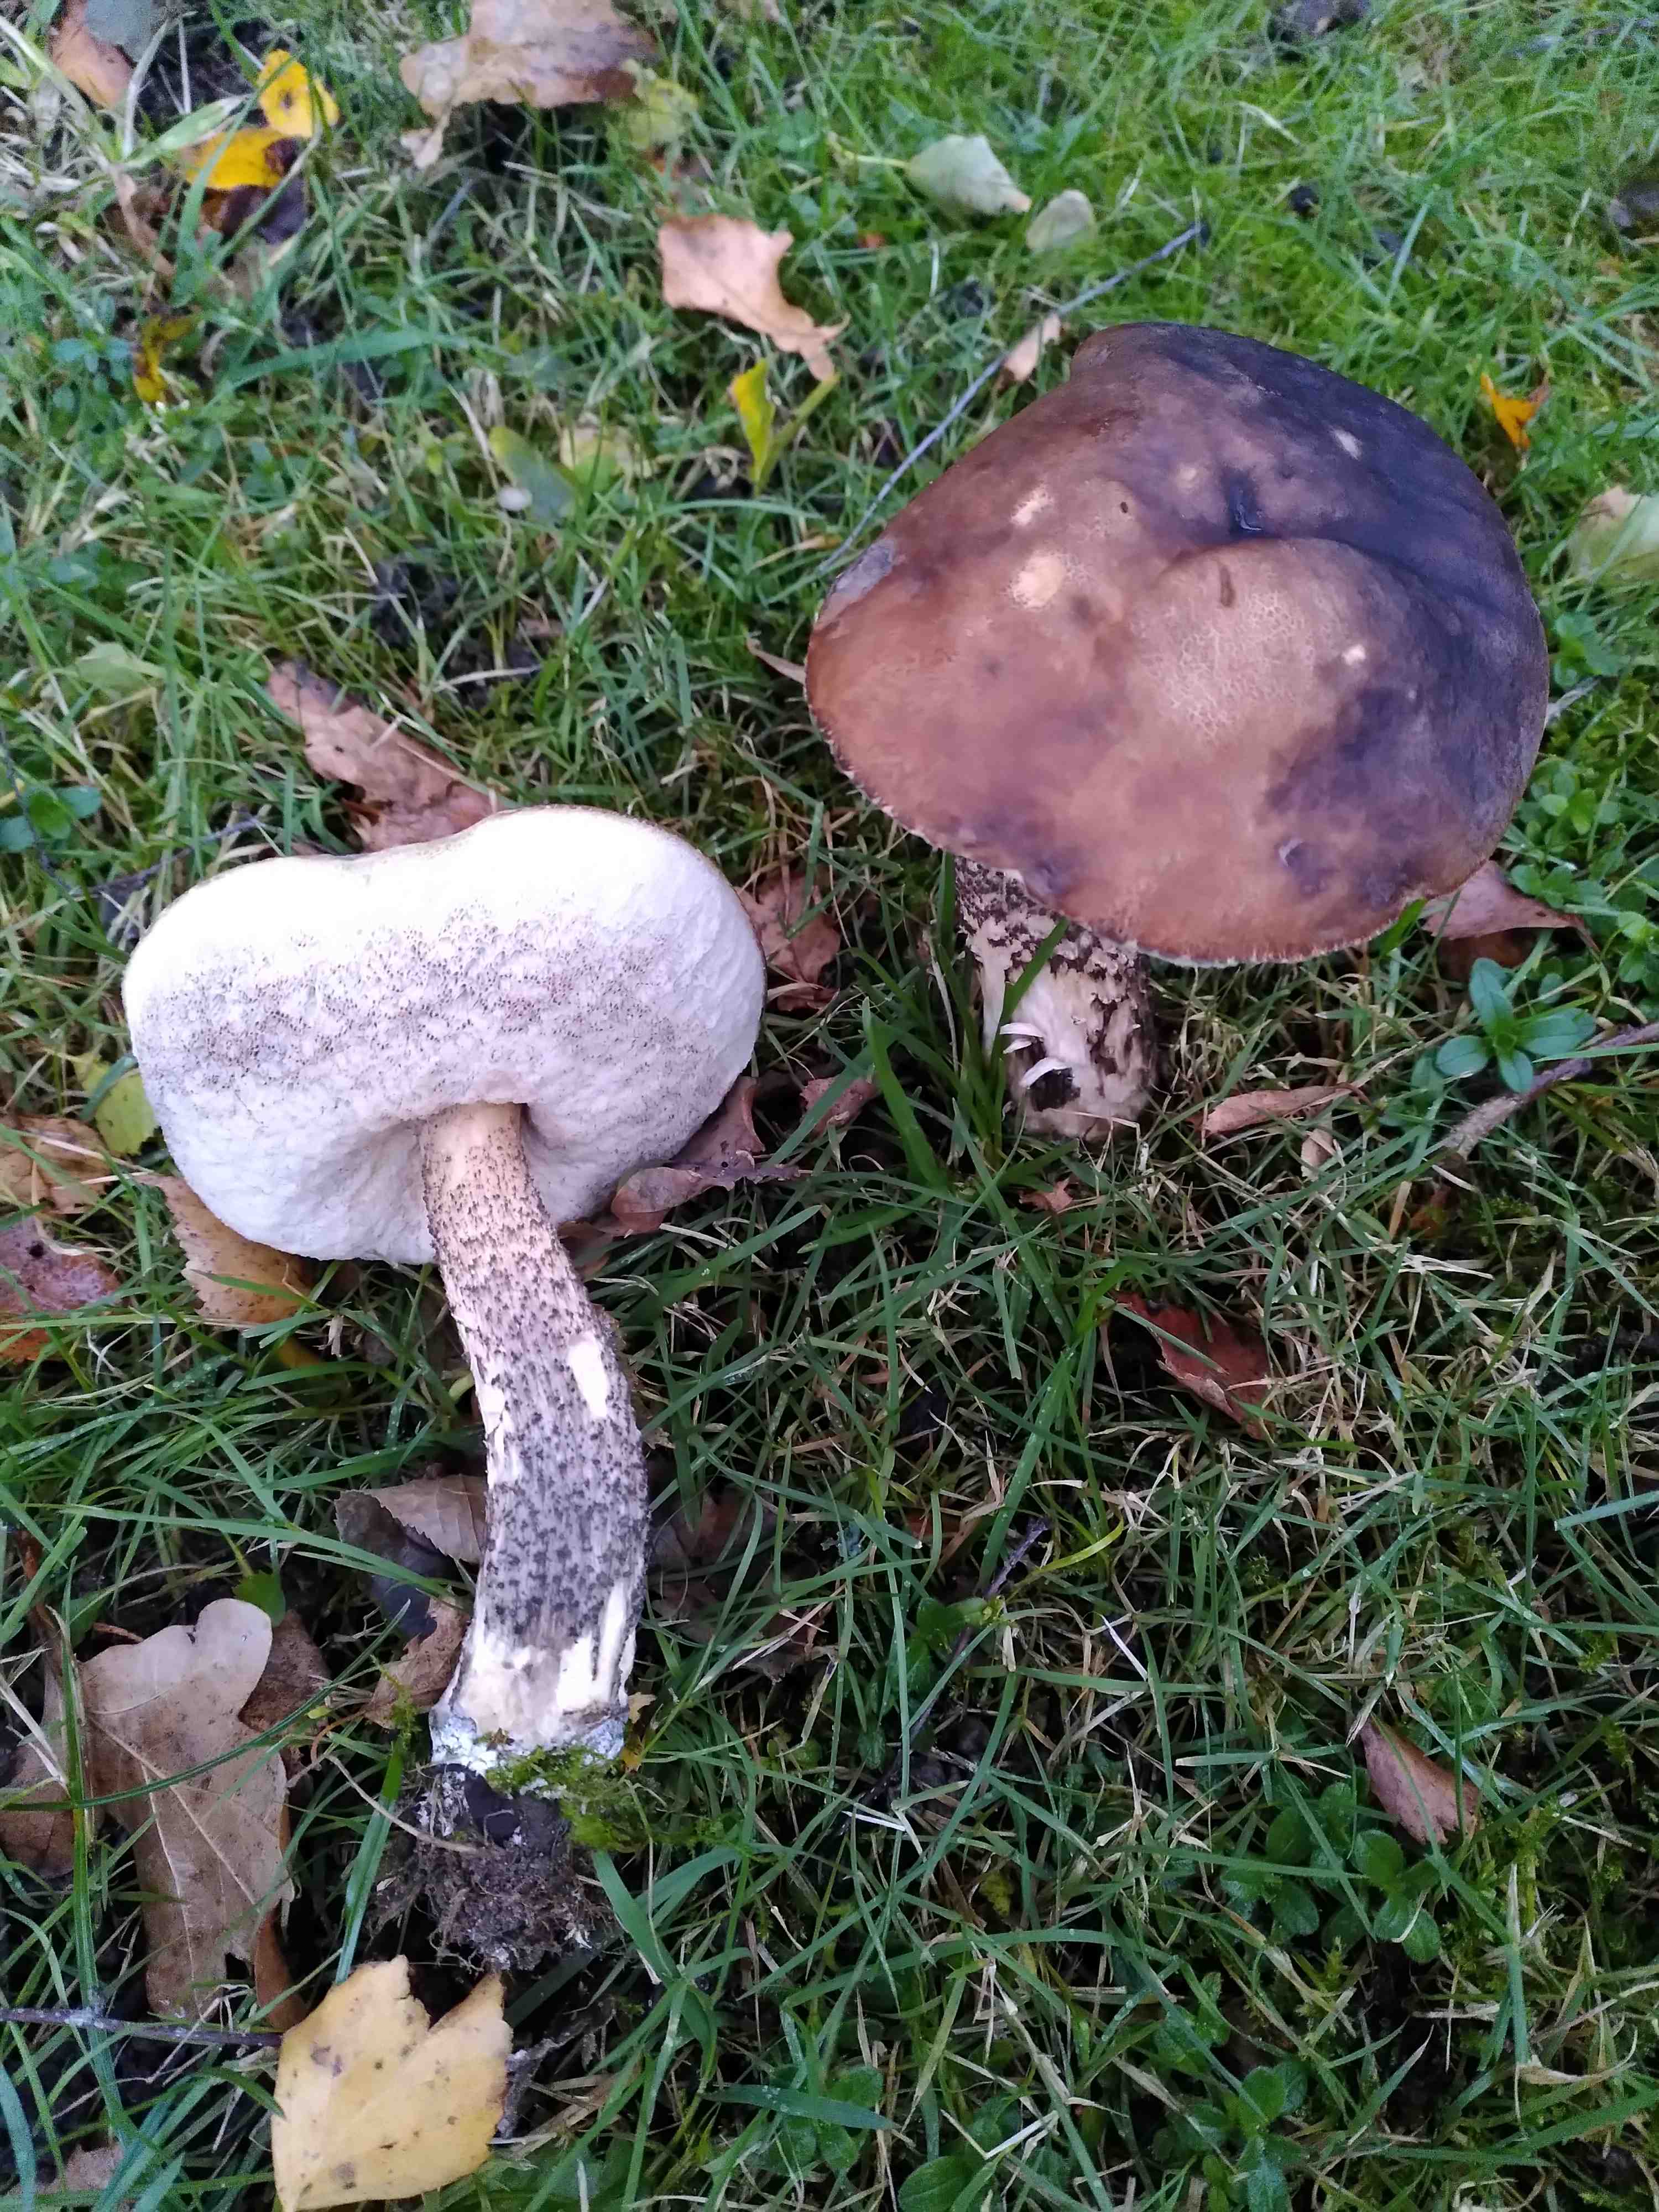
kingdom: Fungi
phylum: Basidiomycota
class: Agaricomycetes
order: Boletales
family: Boletaceae
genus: Leccinum
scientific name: Leccinum scabrum
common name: brun skælrørhat
